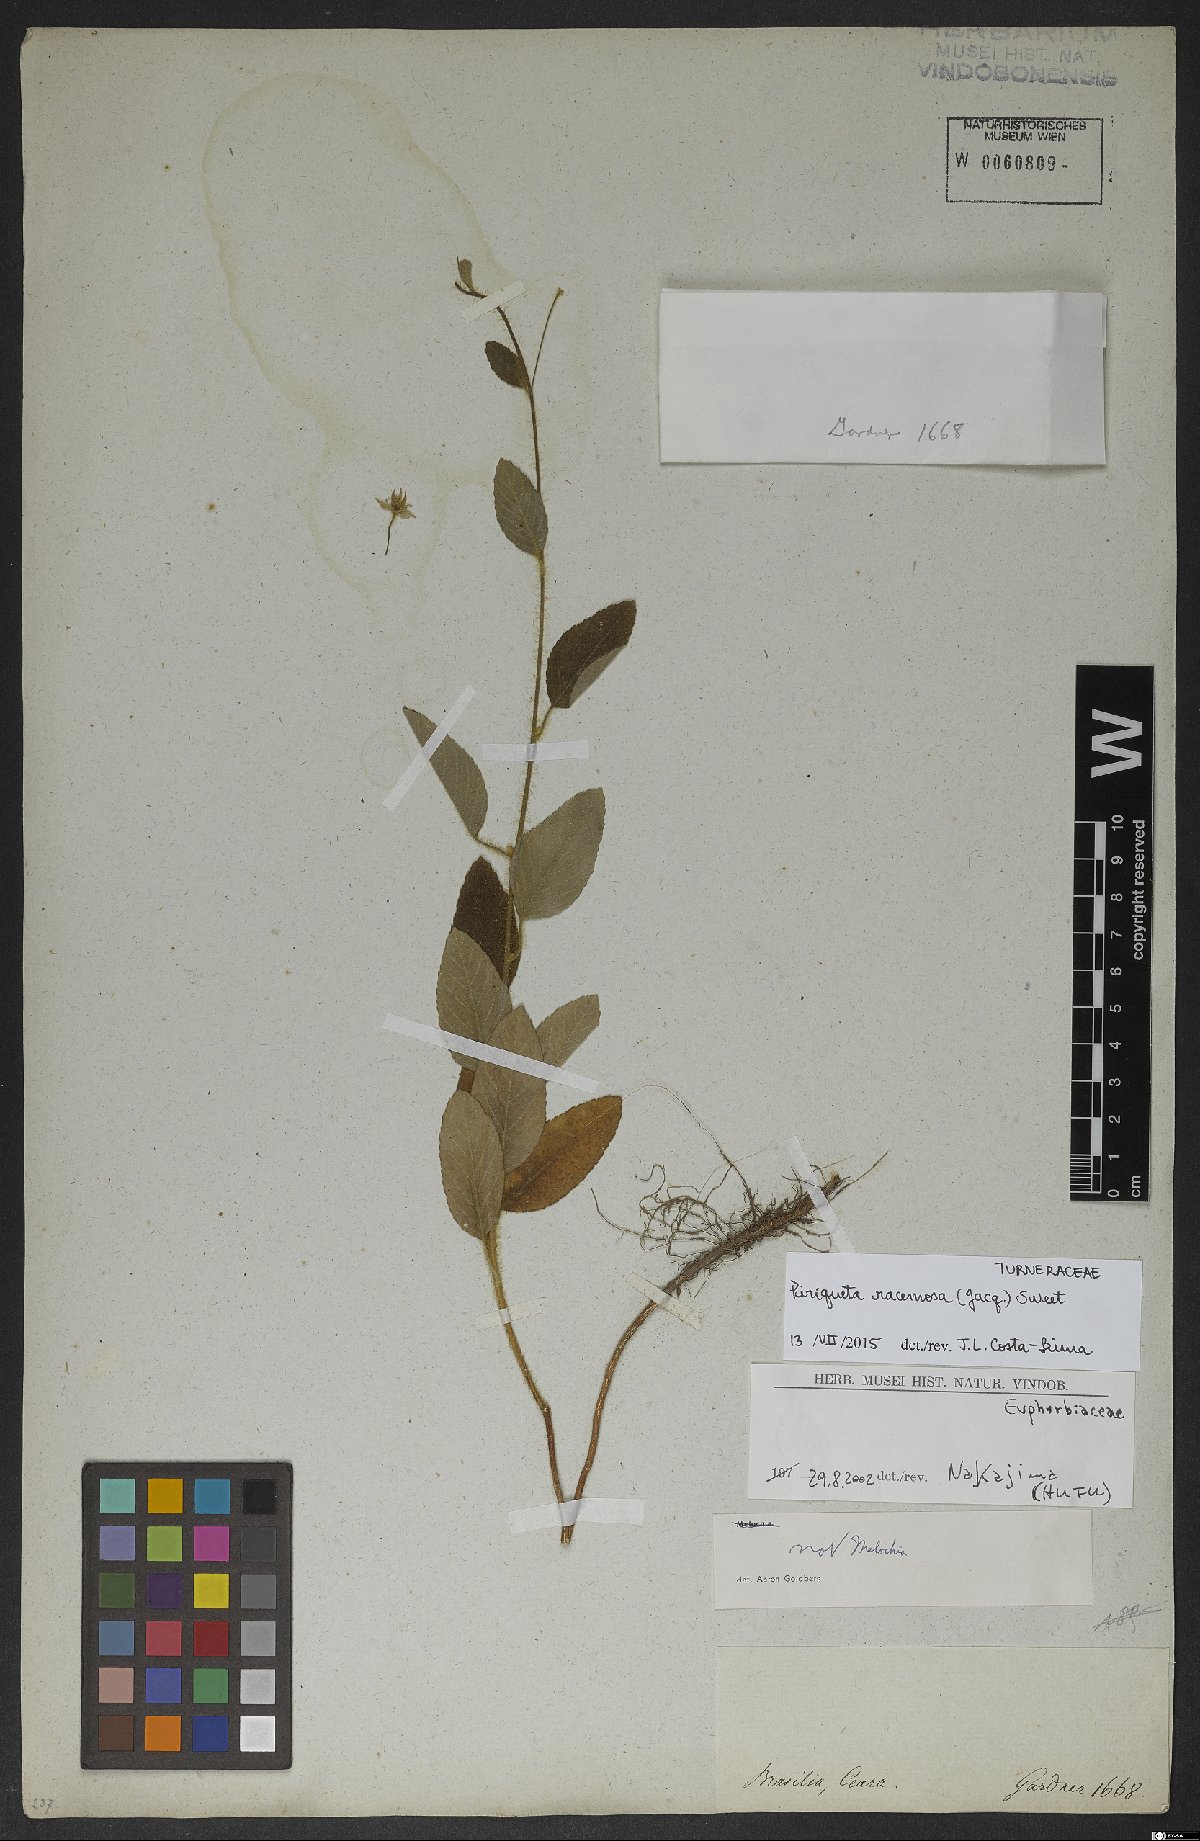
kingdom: Plantae
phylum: Tracheophyta
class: Magnoliopsida
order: Malpighiales
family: Turneraceae
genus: Piriqueta
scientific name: Piriqueta racemosa
